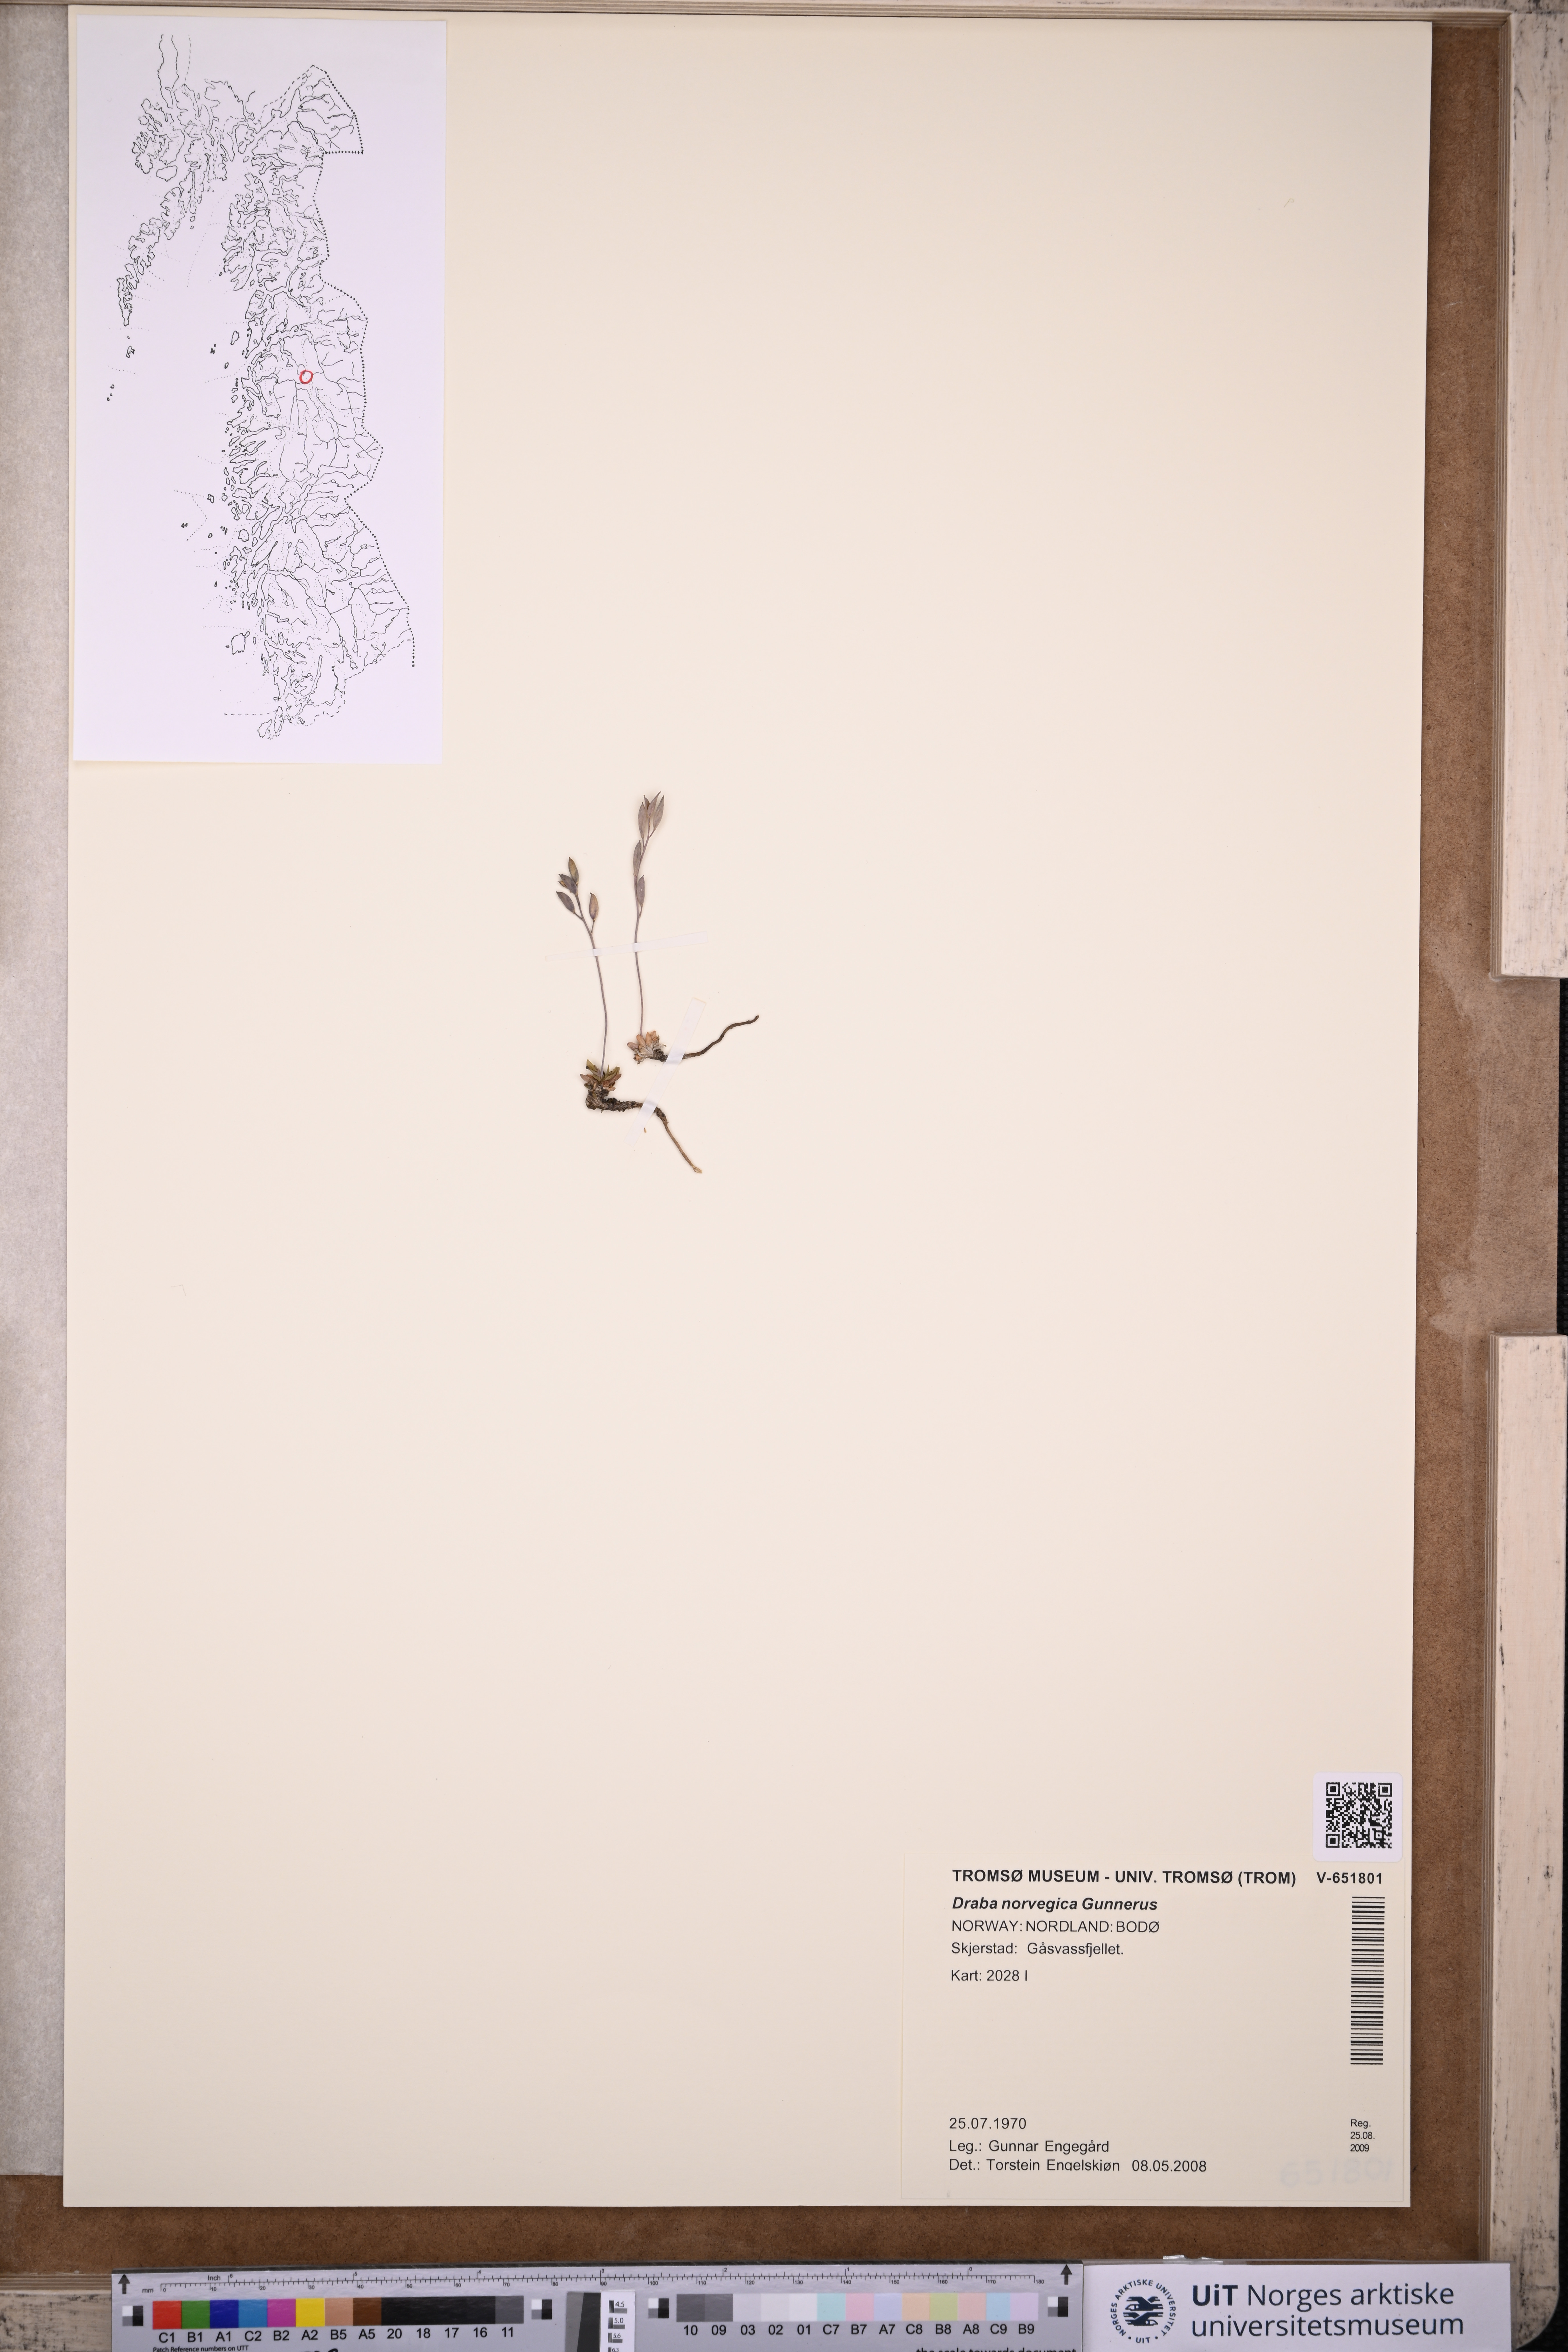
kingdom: Plantae
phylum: Tracheophyta
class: Magnoliopsida
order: Brassicales
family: Brassicaceae
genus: Draba
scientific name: Draba norvegica
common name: Rock whitlowgrass
